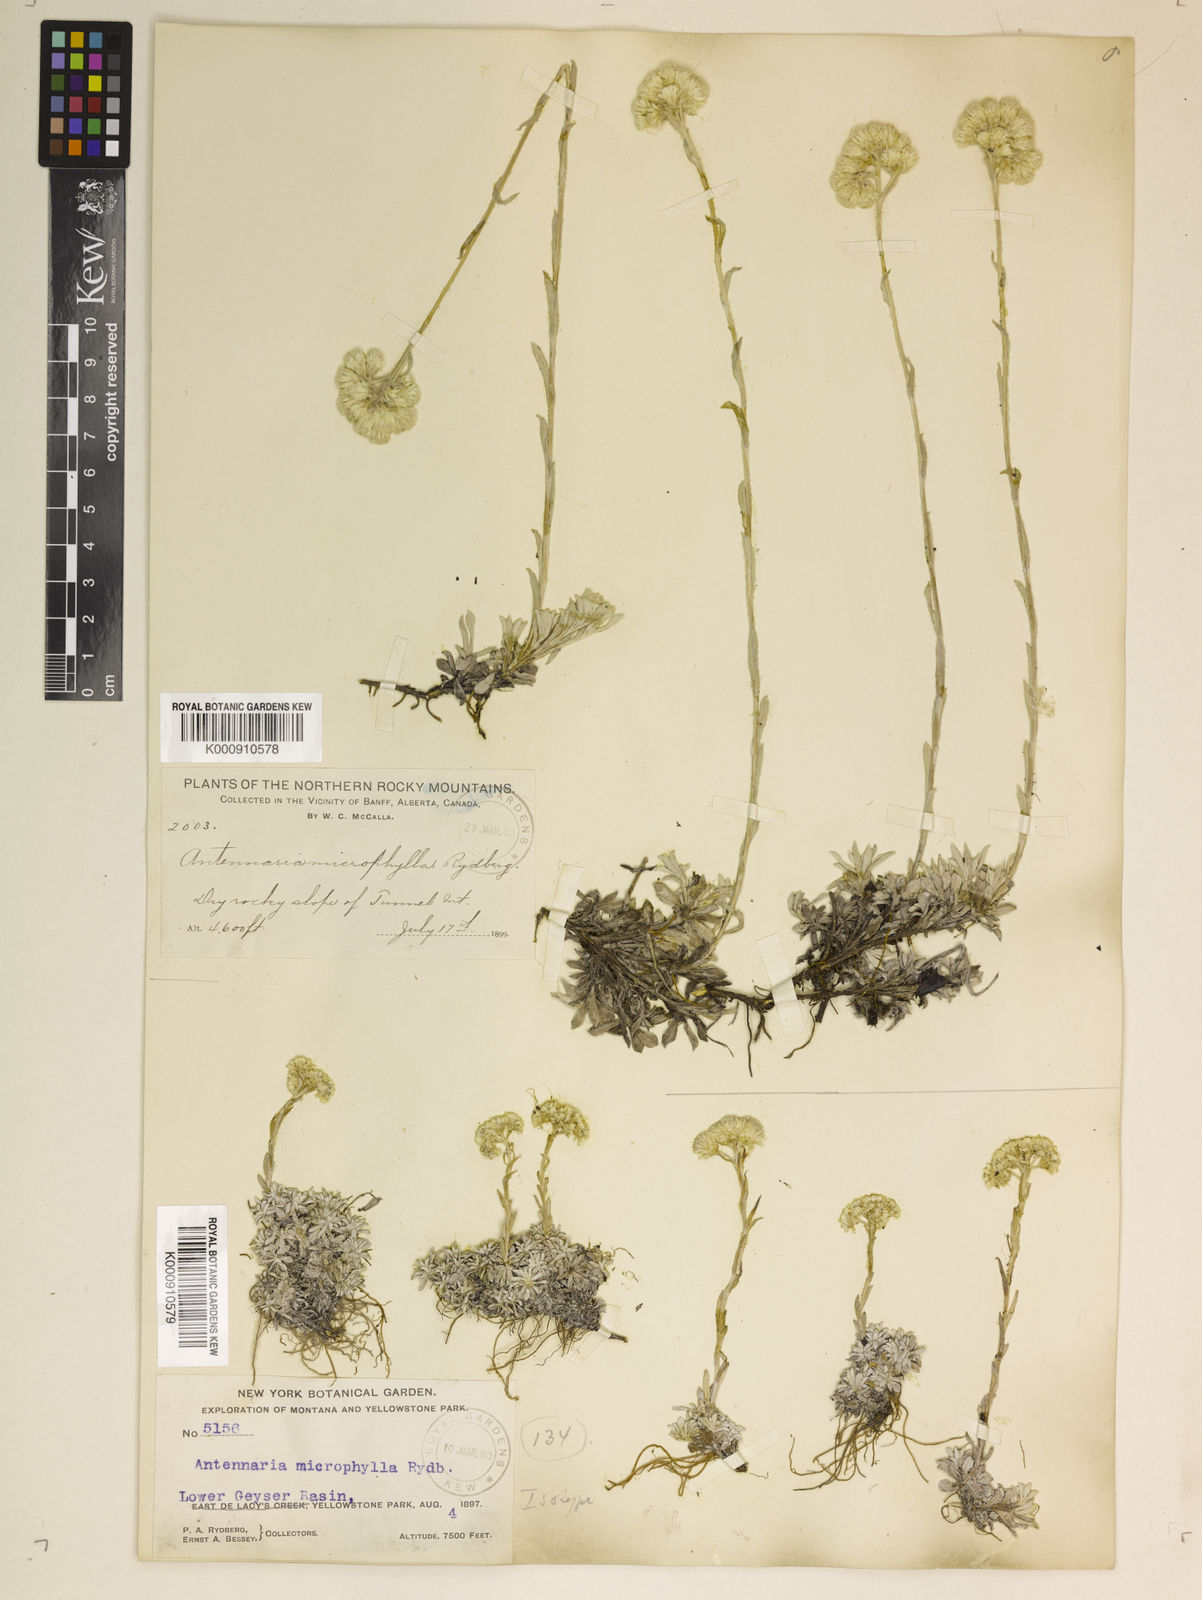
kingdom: Plantae
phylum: Tracheophyta
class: Magnoliopsida
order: Asterales
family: Asteraceae
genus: Antennaria
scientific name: Antennaria microphylla
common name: Littleleaf pussytoes
